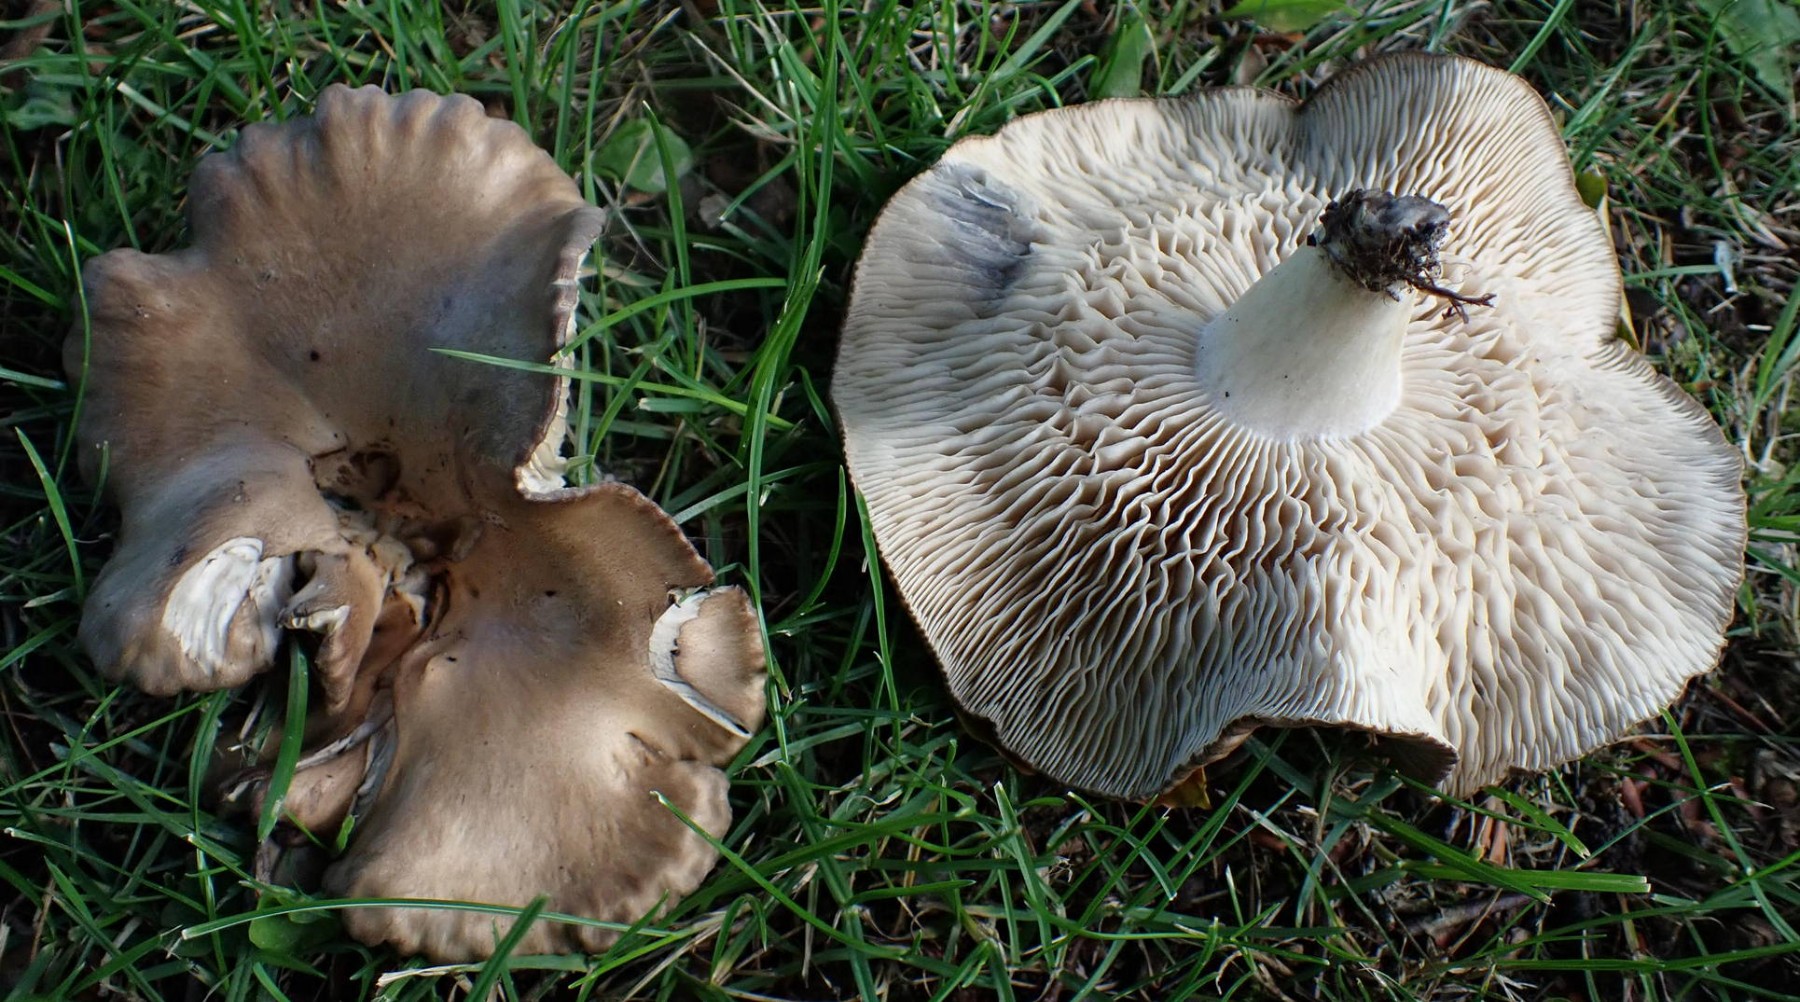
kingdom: Fungi
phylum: Basidiomycota
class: Agaricomycetes
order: Agaricales
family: Lyophyllaceae
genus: Lyophyllum
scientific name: Lyophyllum paelochroum
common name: blånende gråblad
